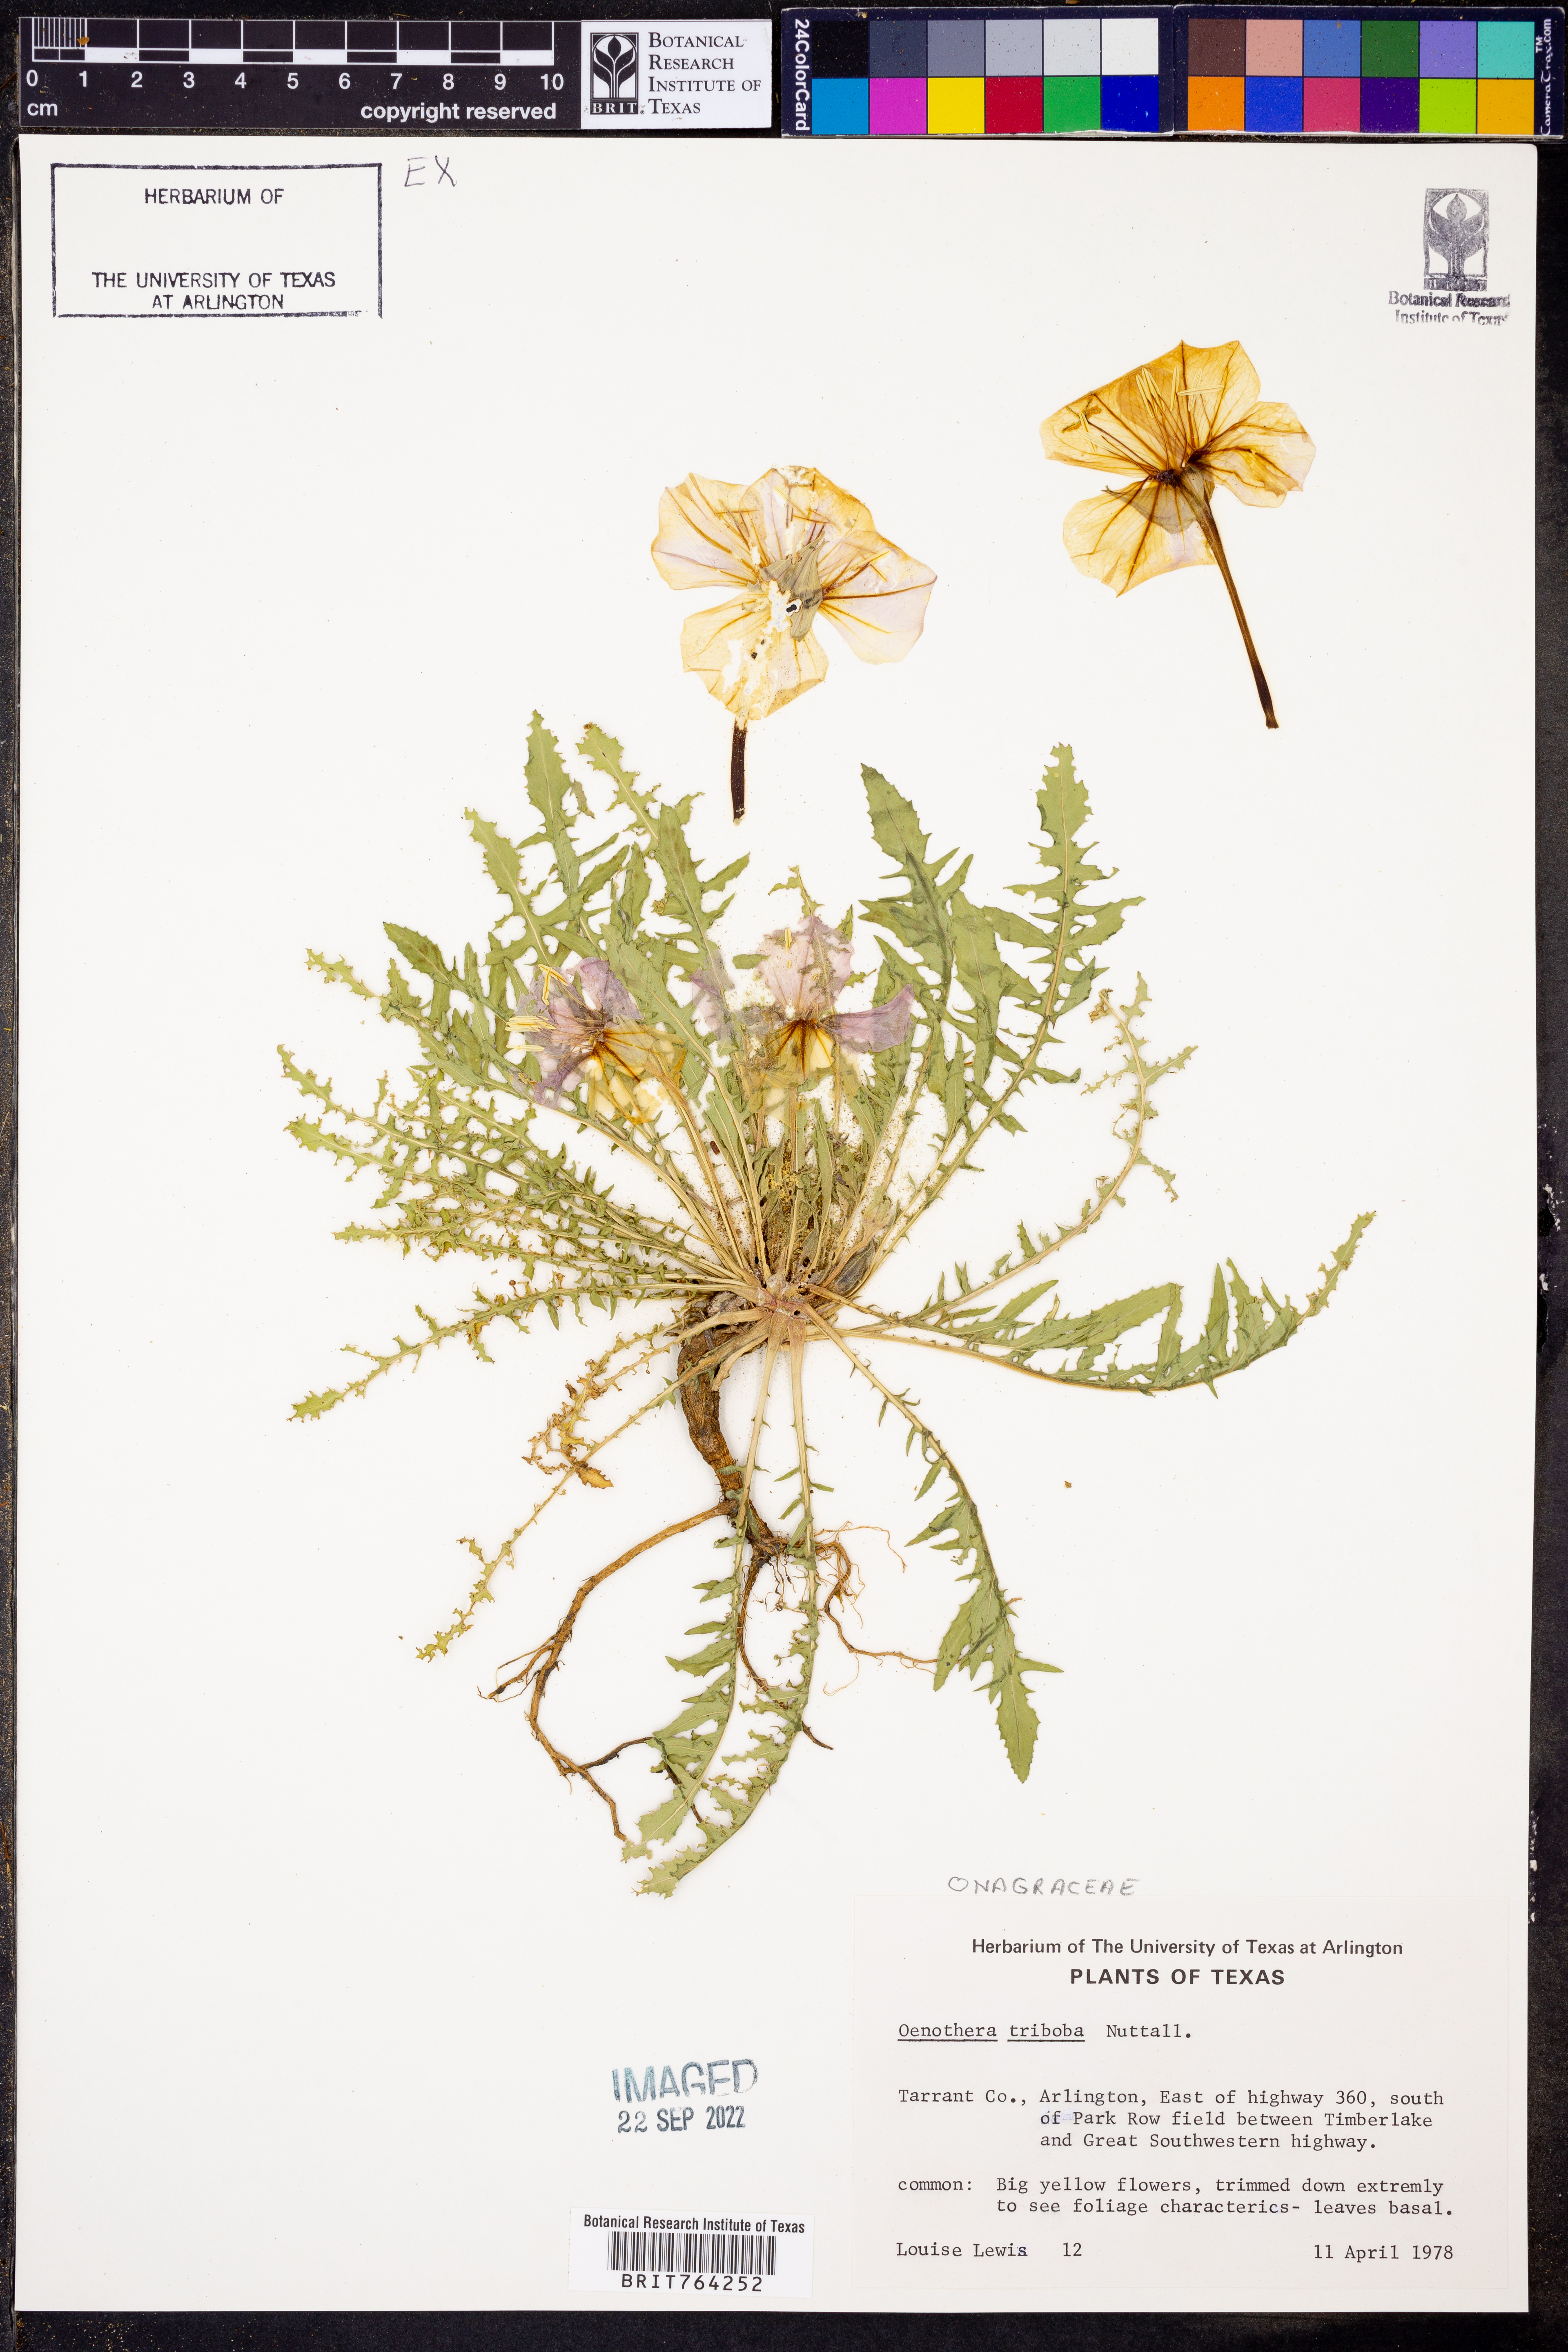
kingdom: Plantae
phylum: Tracheophyta
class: Magnoliopsida
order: Myrtales
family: Onagraceae
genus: Oenothera
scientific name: Oenothera triloba
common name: Sessile evening-primrose
